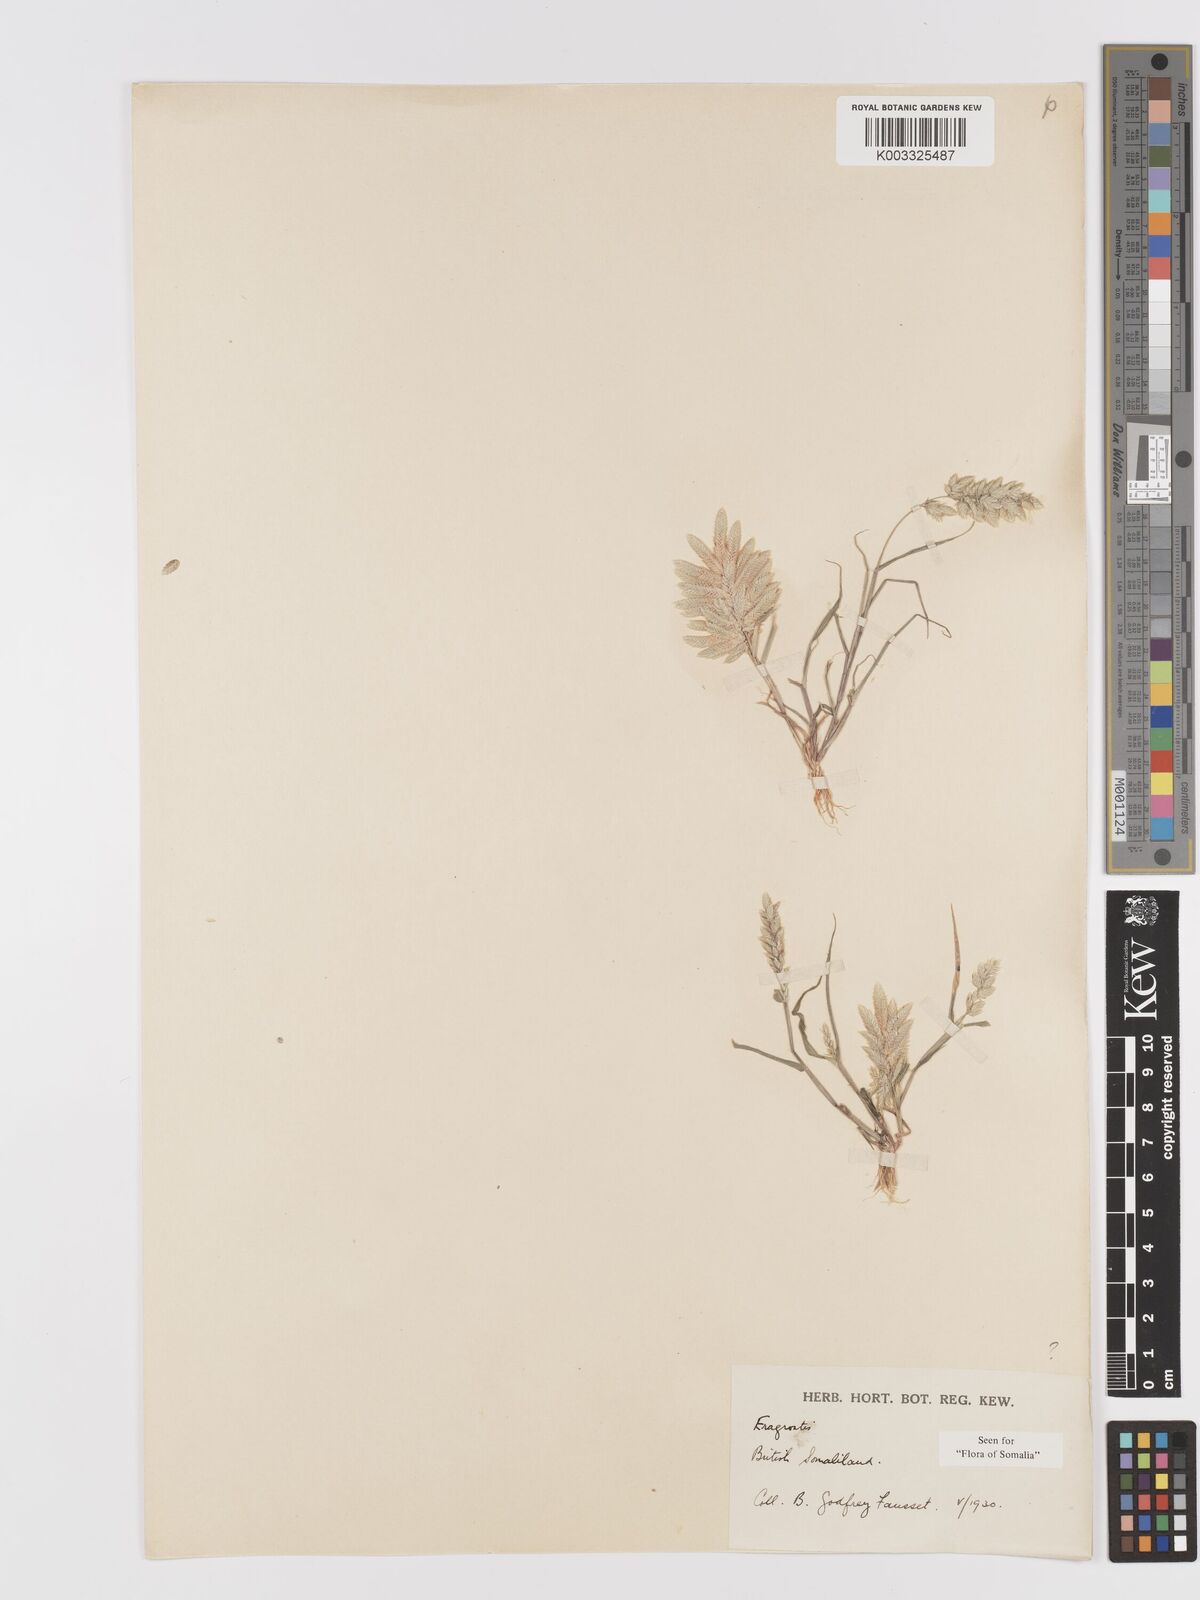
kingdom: Plantae
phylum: Tracheophyta
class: Liliopsida
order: Poales
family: Poaceae
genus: Eragrostis
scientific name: Eragrostis cilianensis
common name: Stinkgrass
